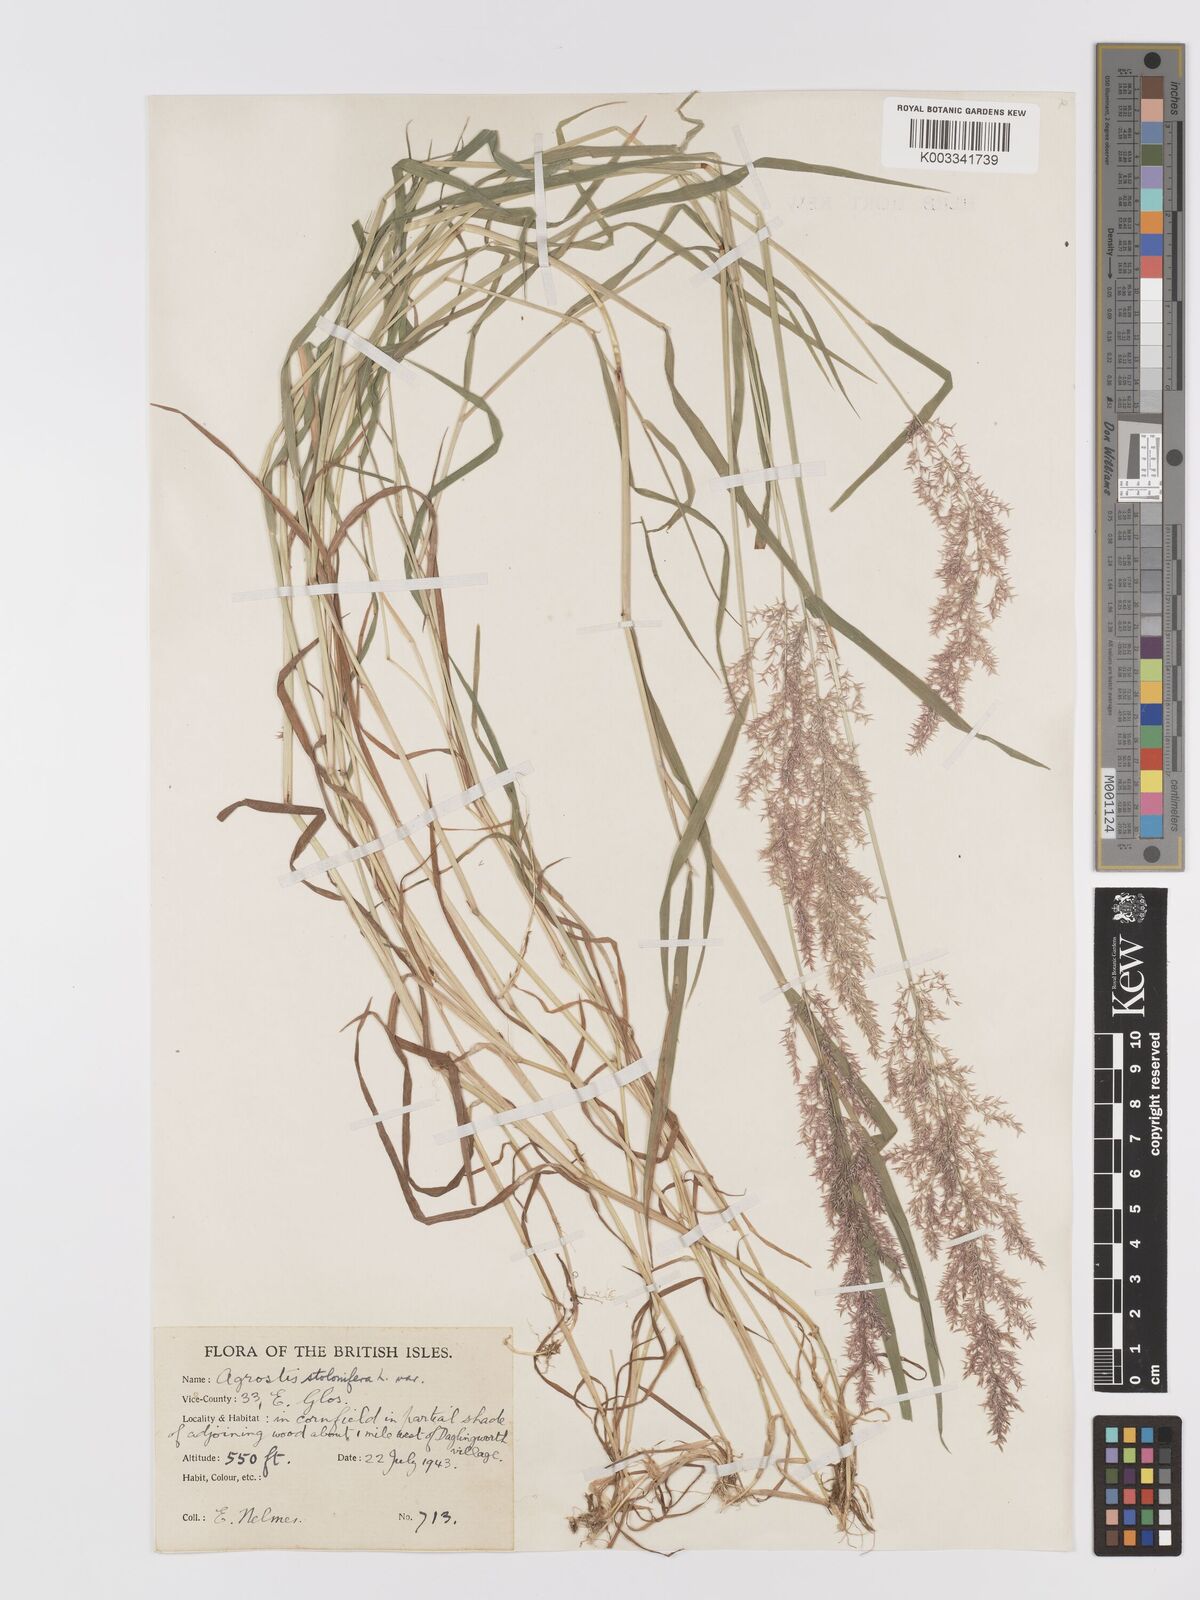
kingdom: Plantae
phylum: Tracheophyta
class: Liliopsida
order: Poales
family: Poaceae
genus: Agrostis
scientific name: Agrostis stolonifera
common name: Creeping bentgrass
